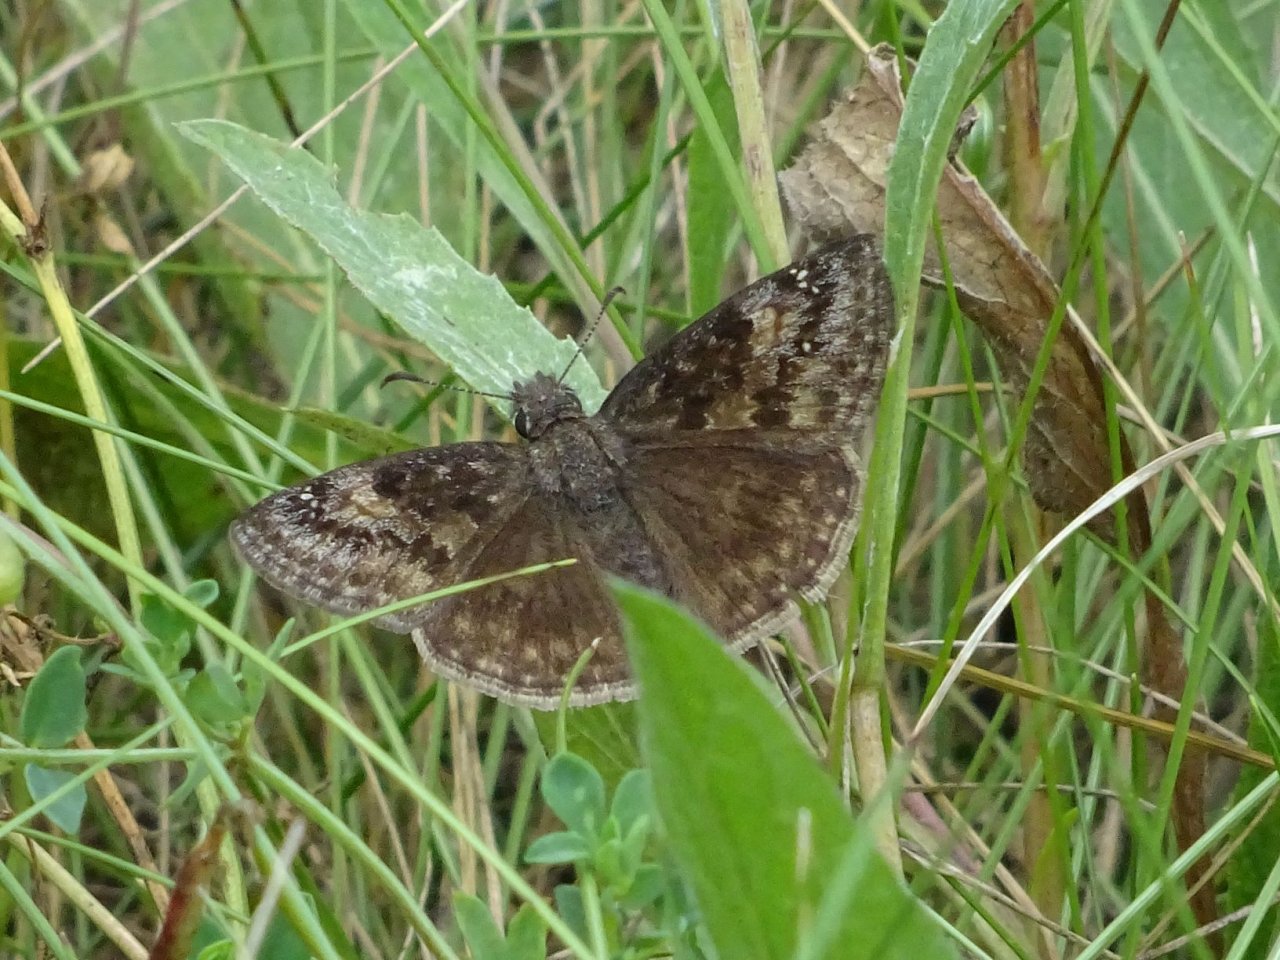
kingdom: Animalia
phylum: Arthropoda
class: Insecta
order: Lepidoptera
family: Hesperiidae
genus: Gesta
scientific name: Gesta
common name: Wild Indigo Duskywing
